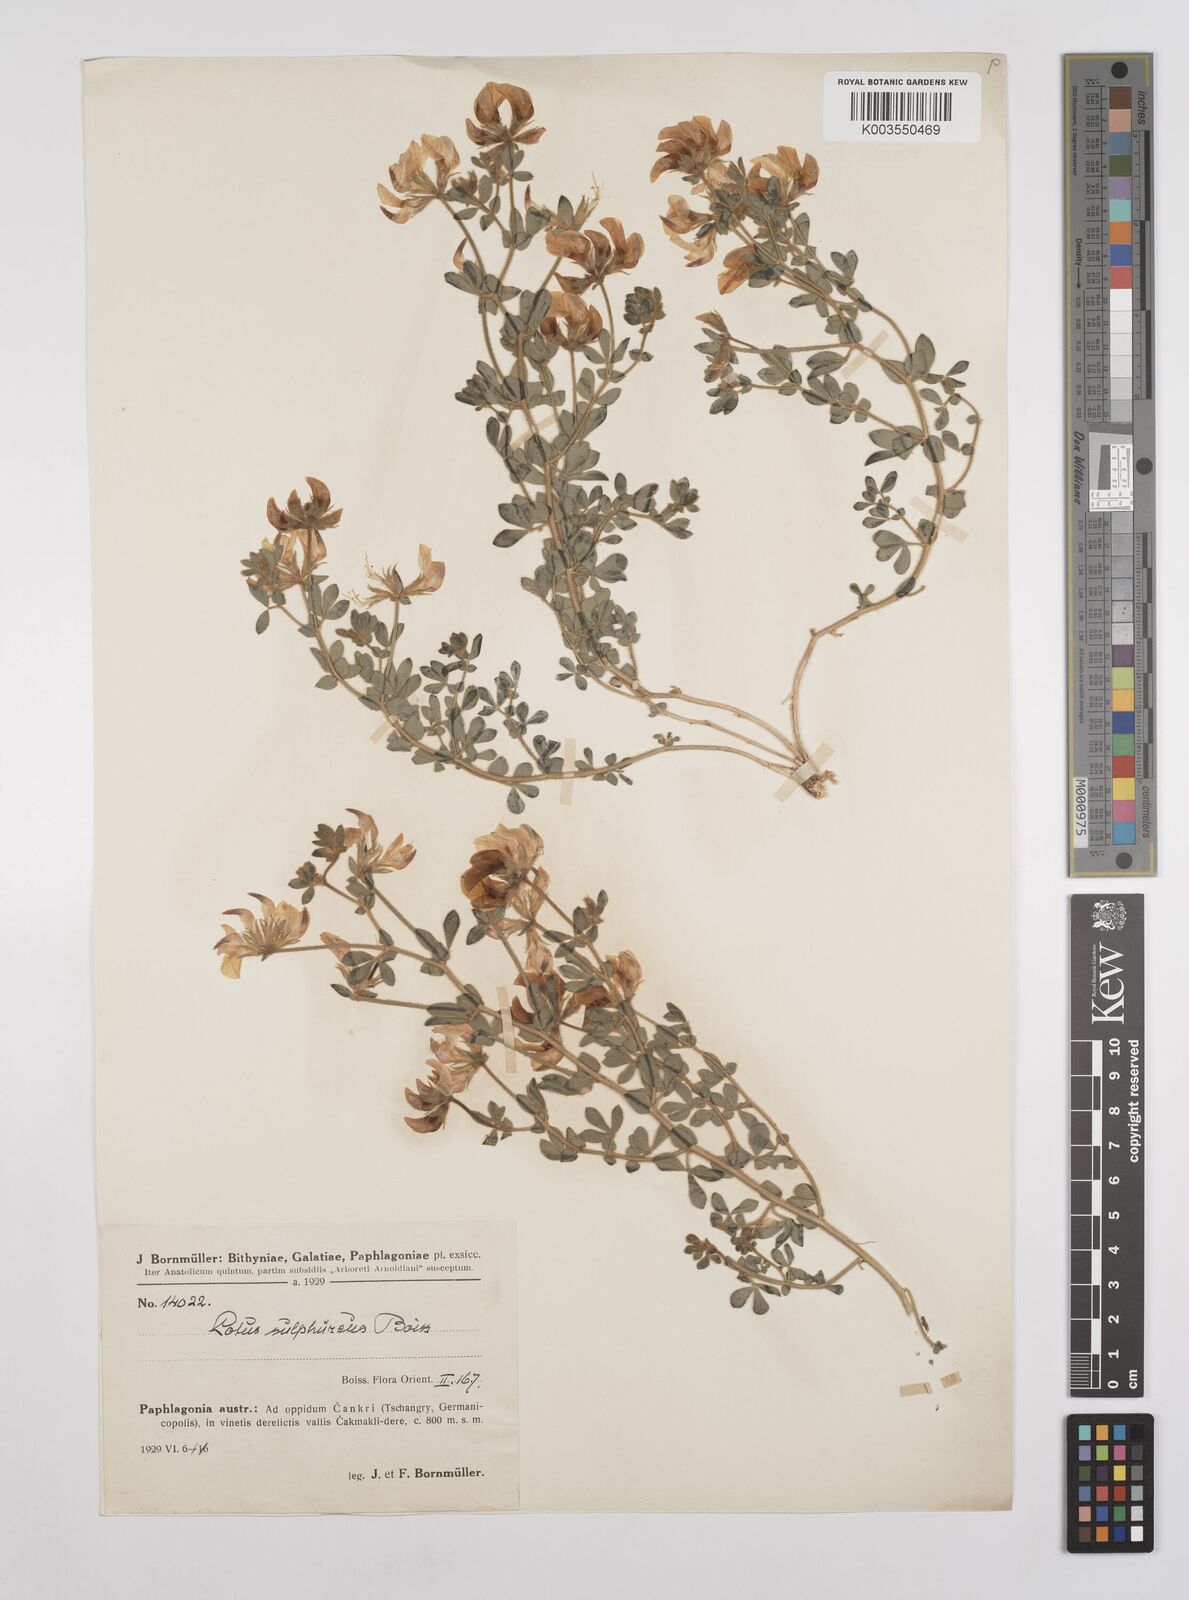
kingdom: Plantae
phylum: Tracheophyta
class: Magnoliopsida
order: Fabales
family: Fabaceae
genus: Lotus
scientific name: Lotus aegaeus
